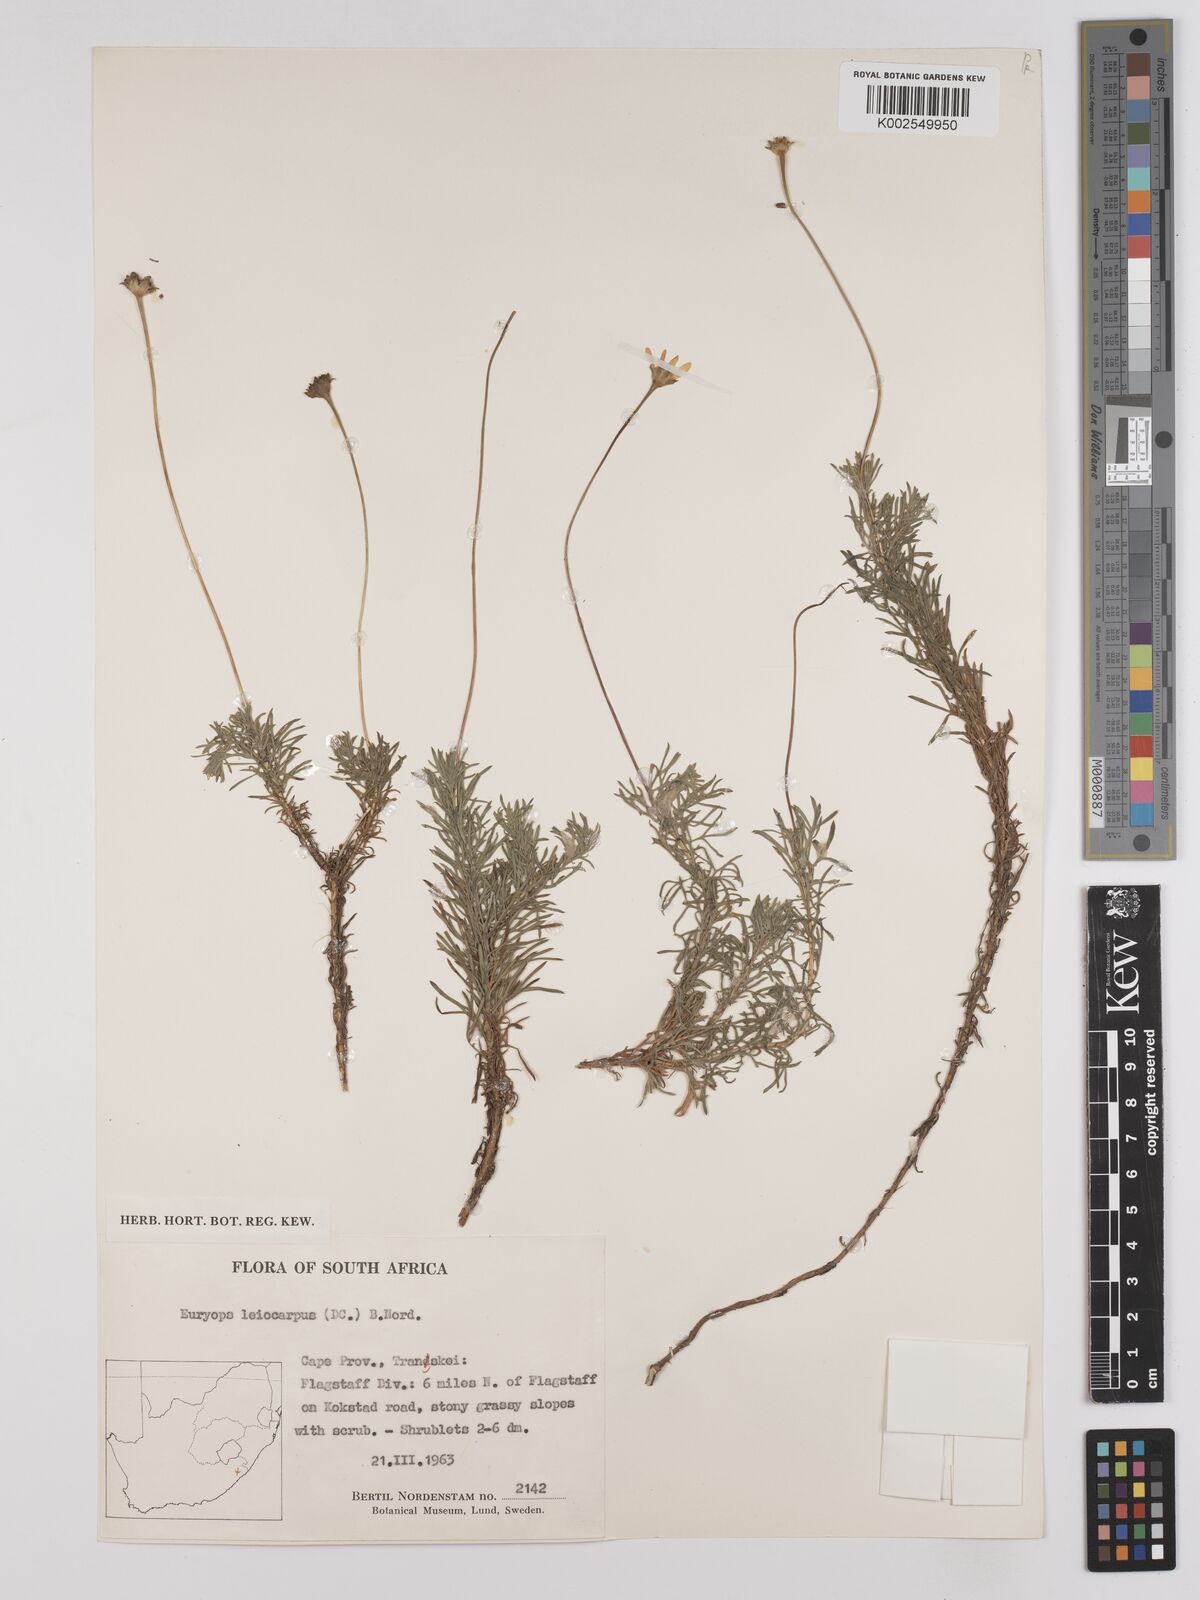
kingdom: Plantae
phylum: Tracheophyta
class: Magnoliopsida
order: Asterales
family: Asteraceae
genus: Euryops
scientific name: Euryops leiocarpus
